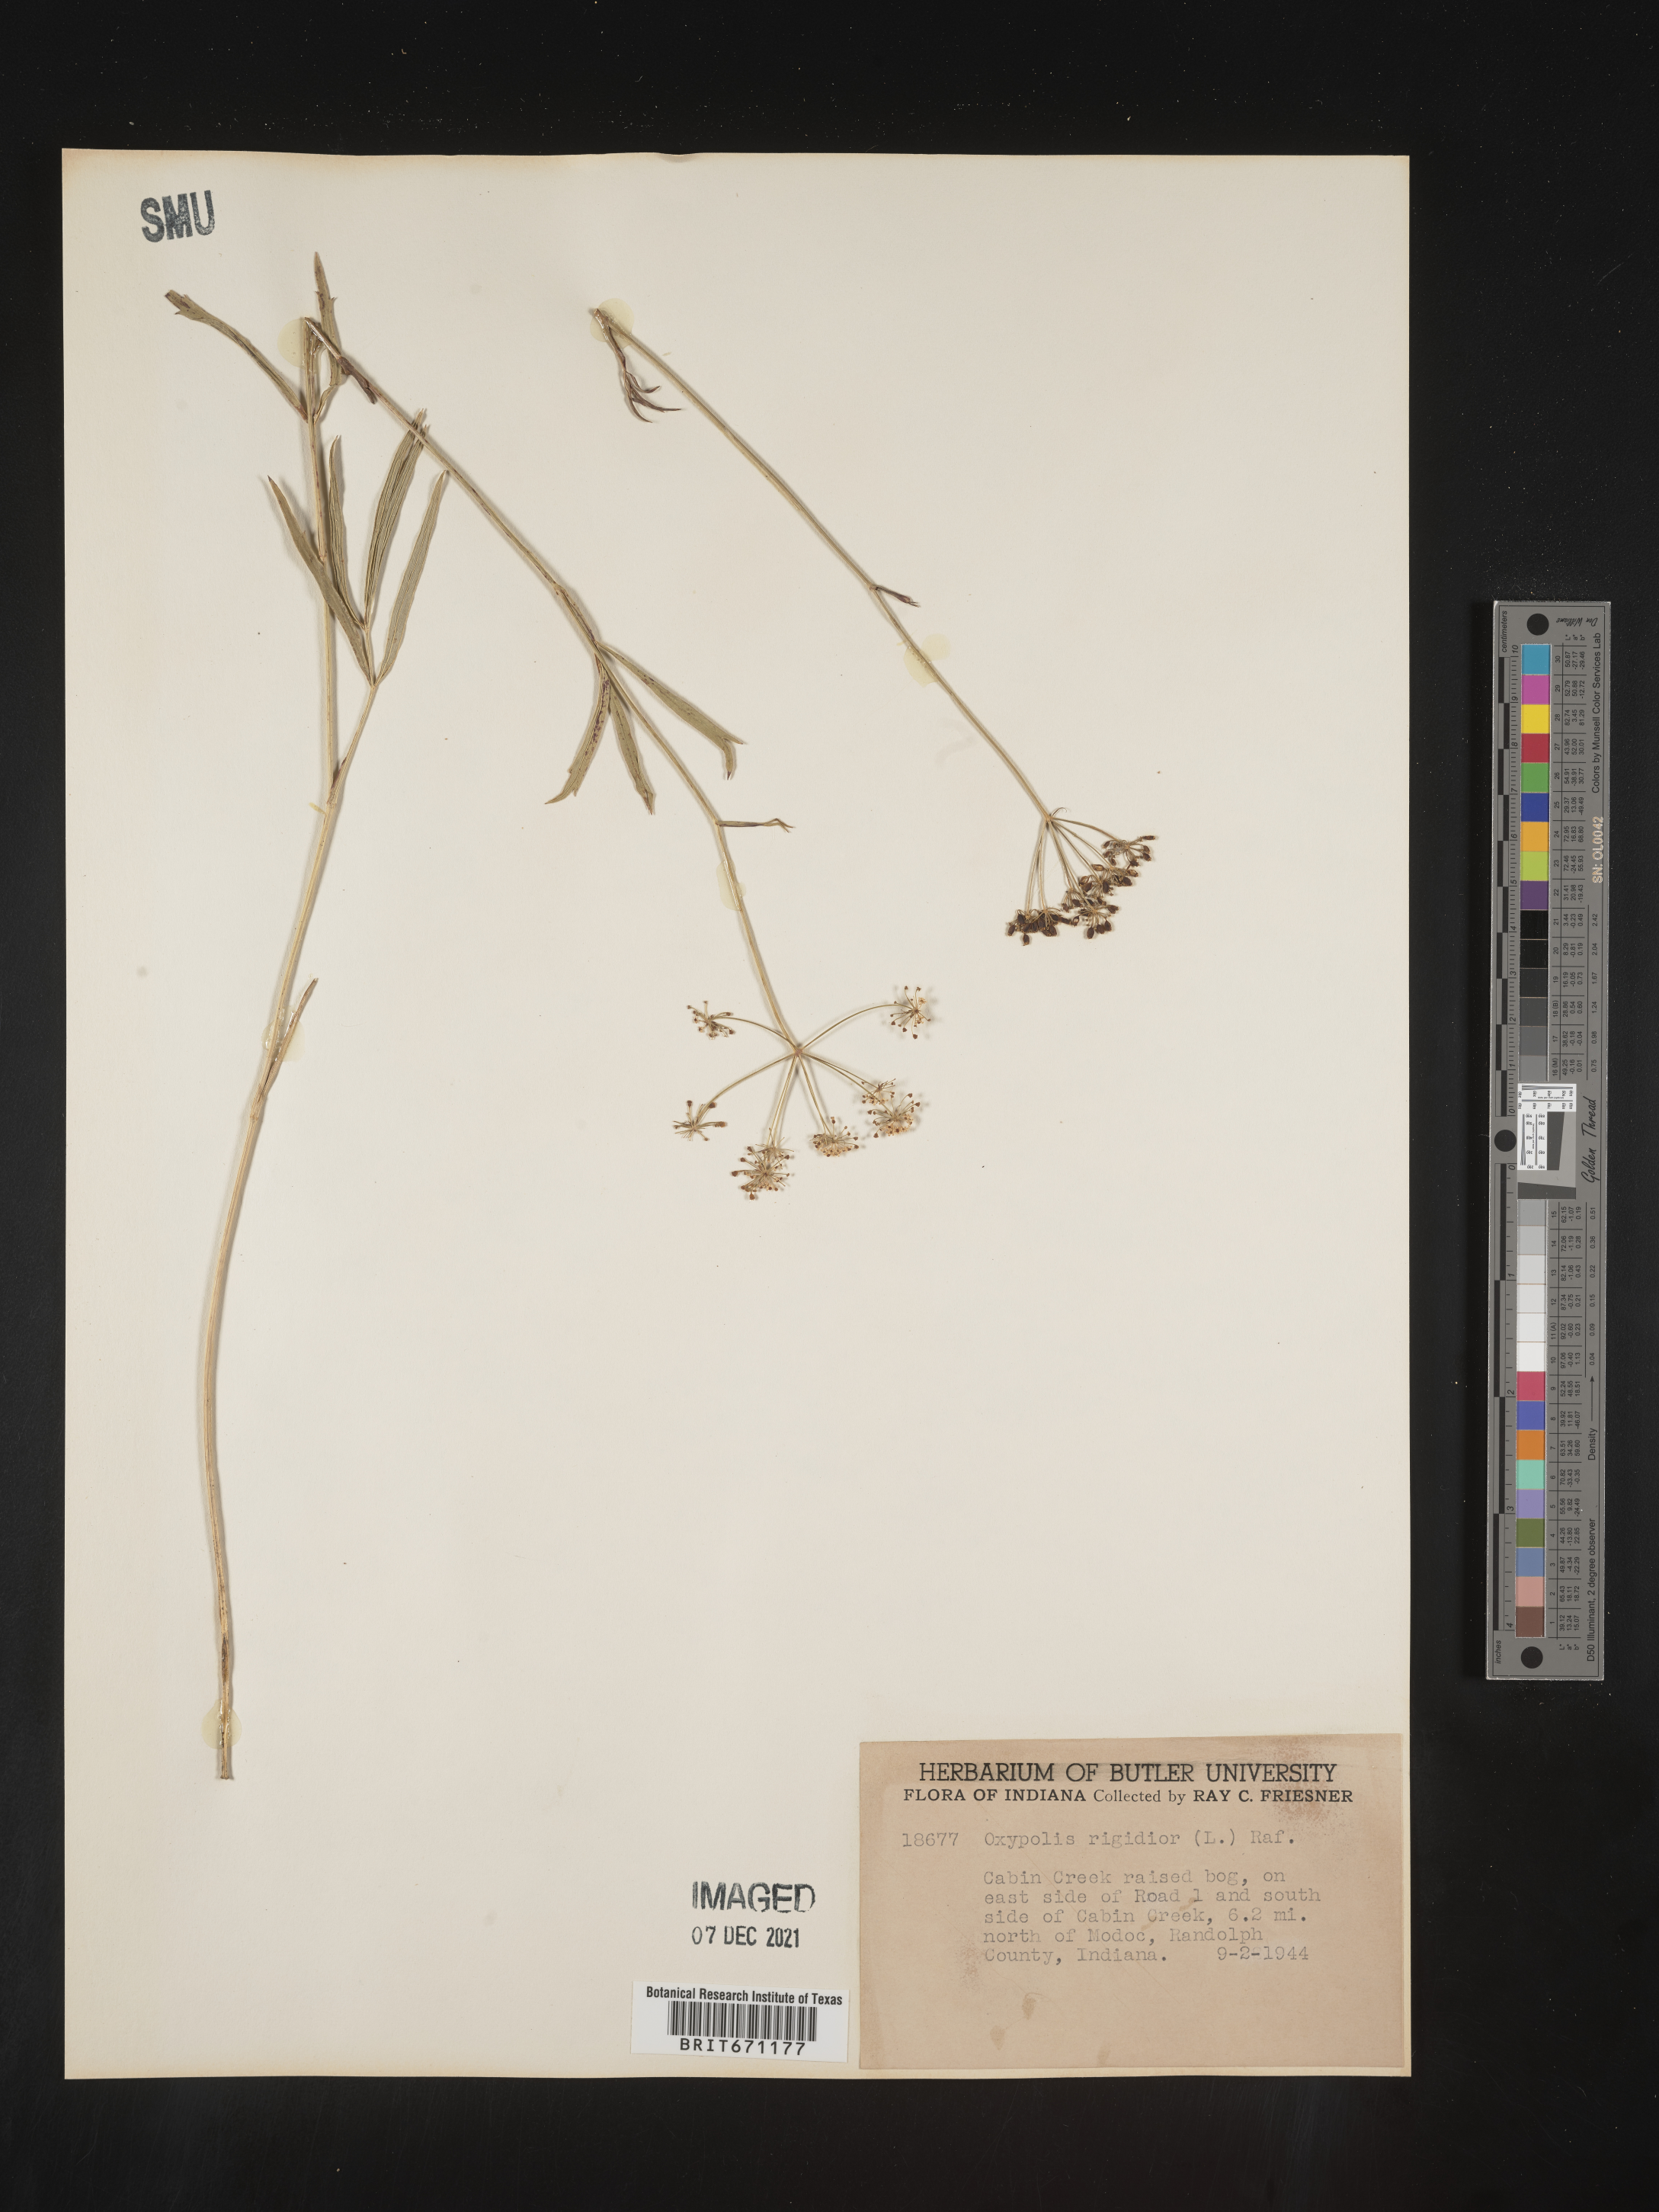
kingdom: Plantae
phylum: Tracheophyta
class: Magnoliopsida
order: Apiales
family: Apiaceae
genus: Oxypolis
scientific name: Oxypolis rigidior
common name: Cowbane
